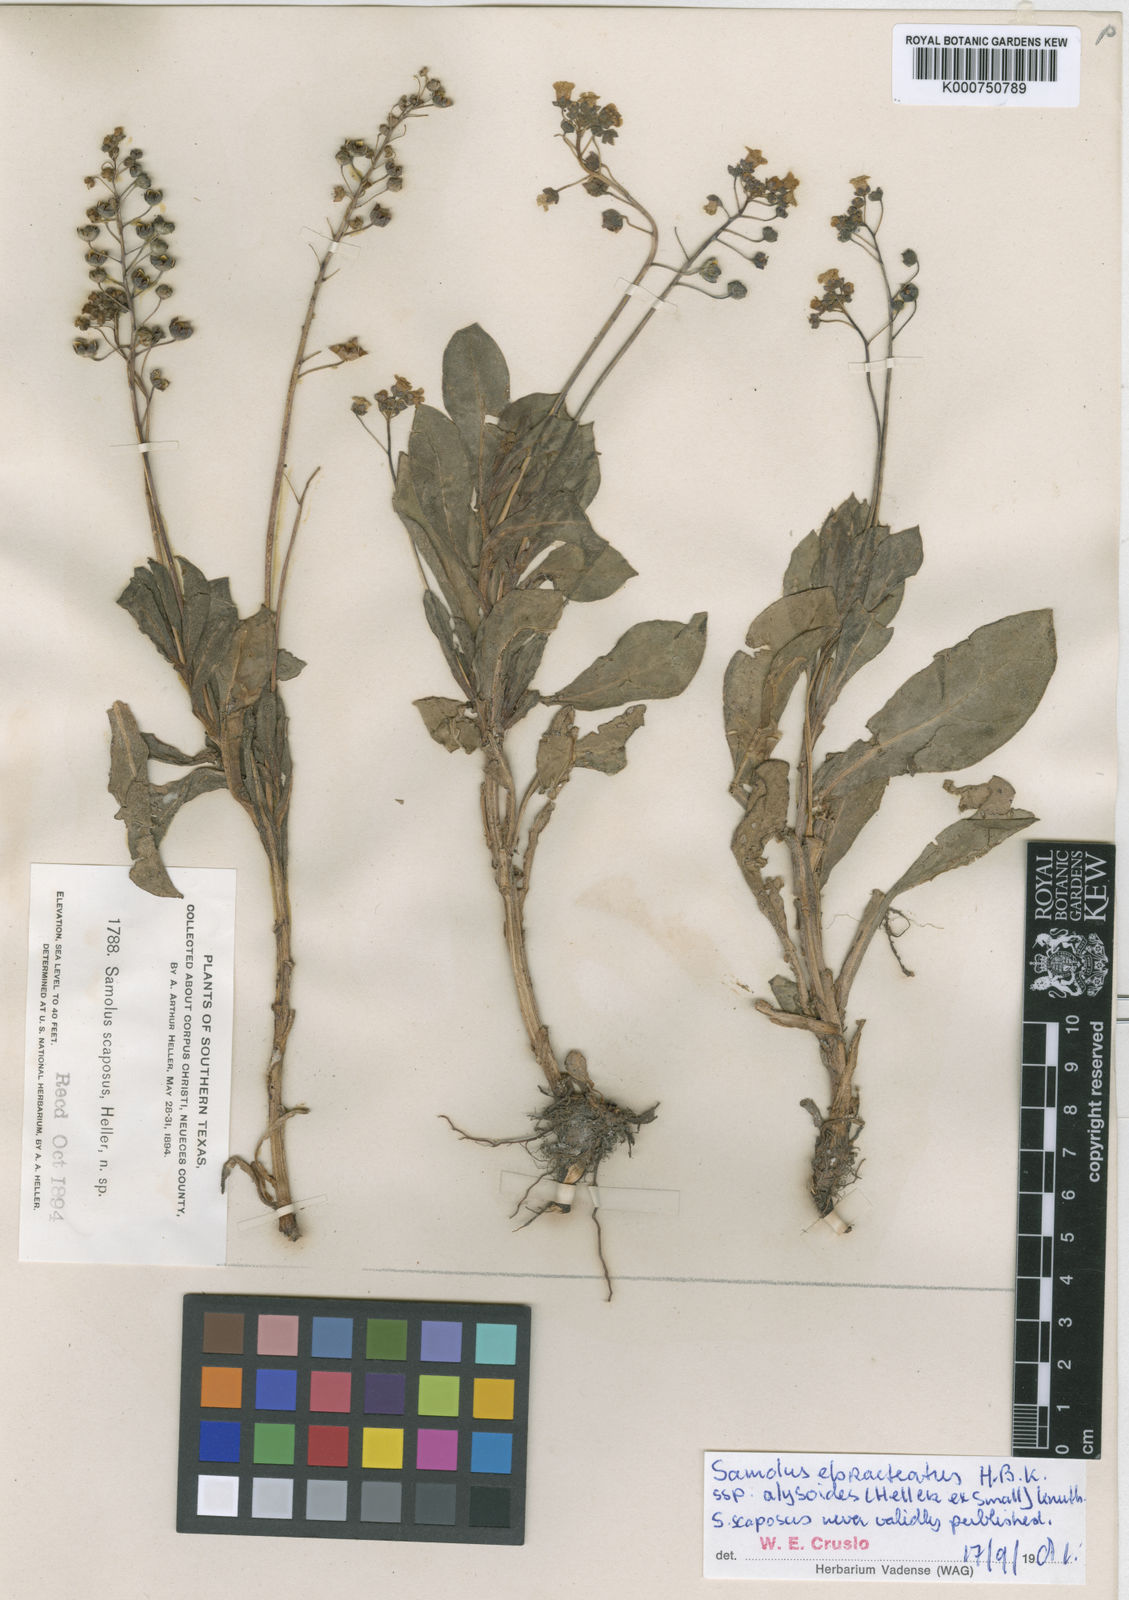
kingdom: Plantae
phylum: Tracheophyta
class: Magnoliopsida
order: Ericales
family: Primulaceae
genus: Samolus
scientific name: Samolus
